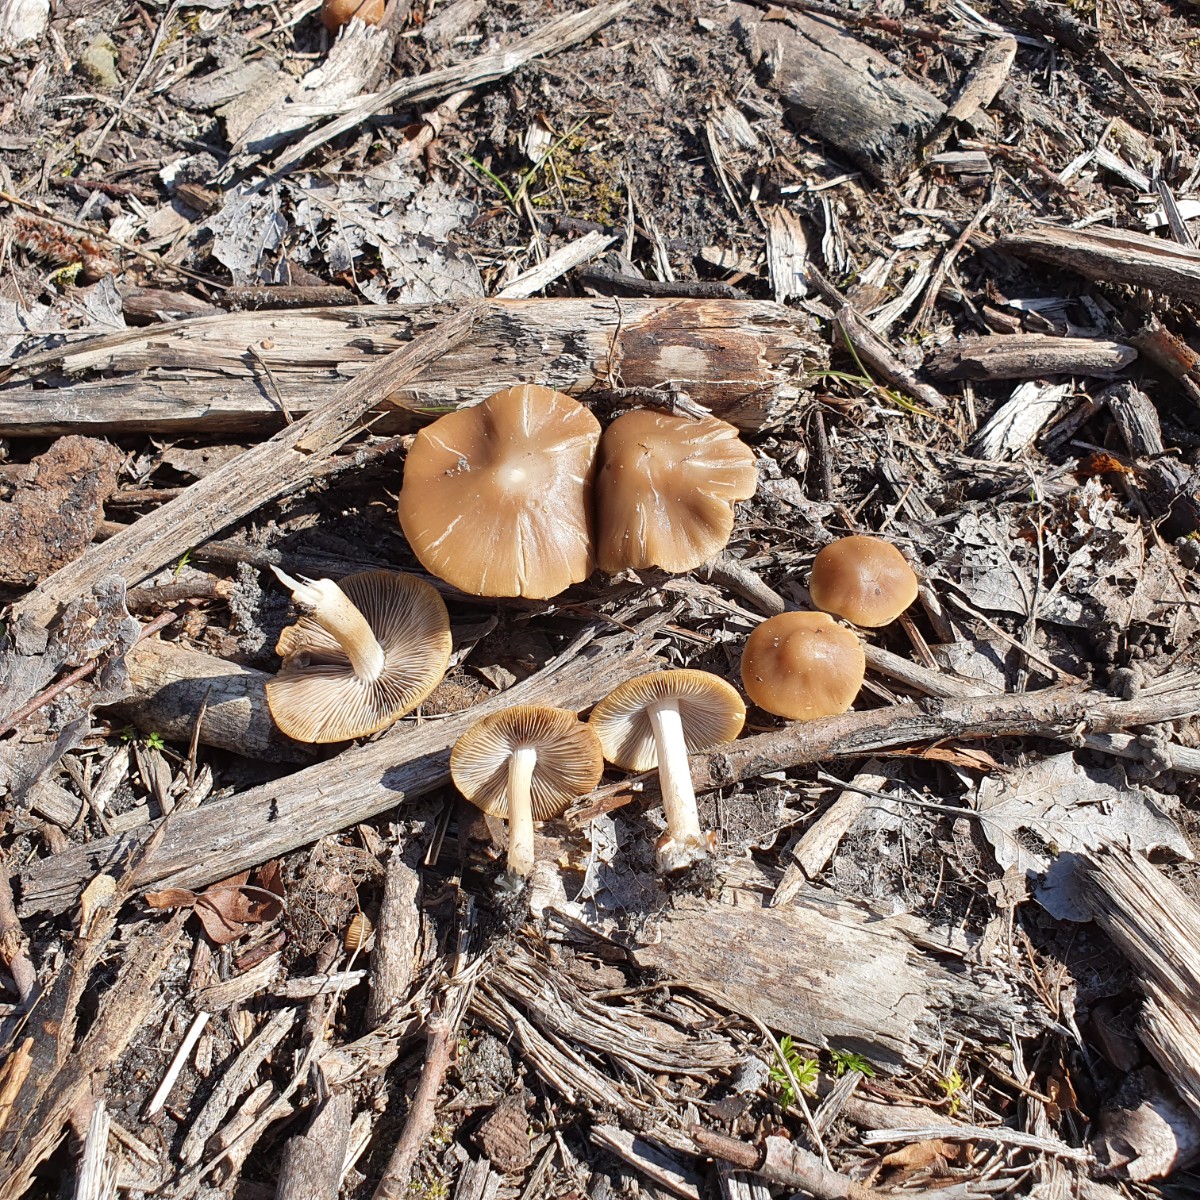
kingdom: Fungi
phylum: Basidiomycota
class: Agaricomycetes
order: Agaricales
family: Psathyrellaceae
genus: Psathyrella
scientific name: Psathyrella spadiceogrisea
